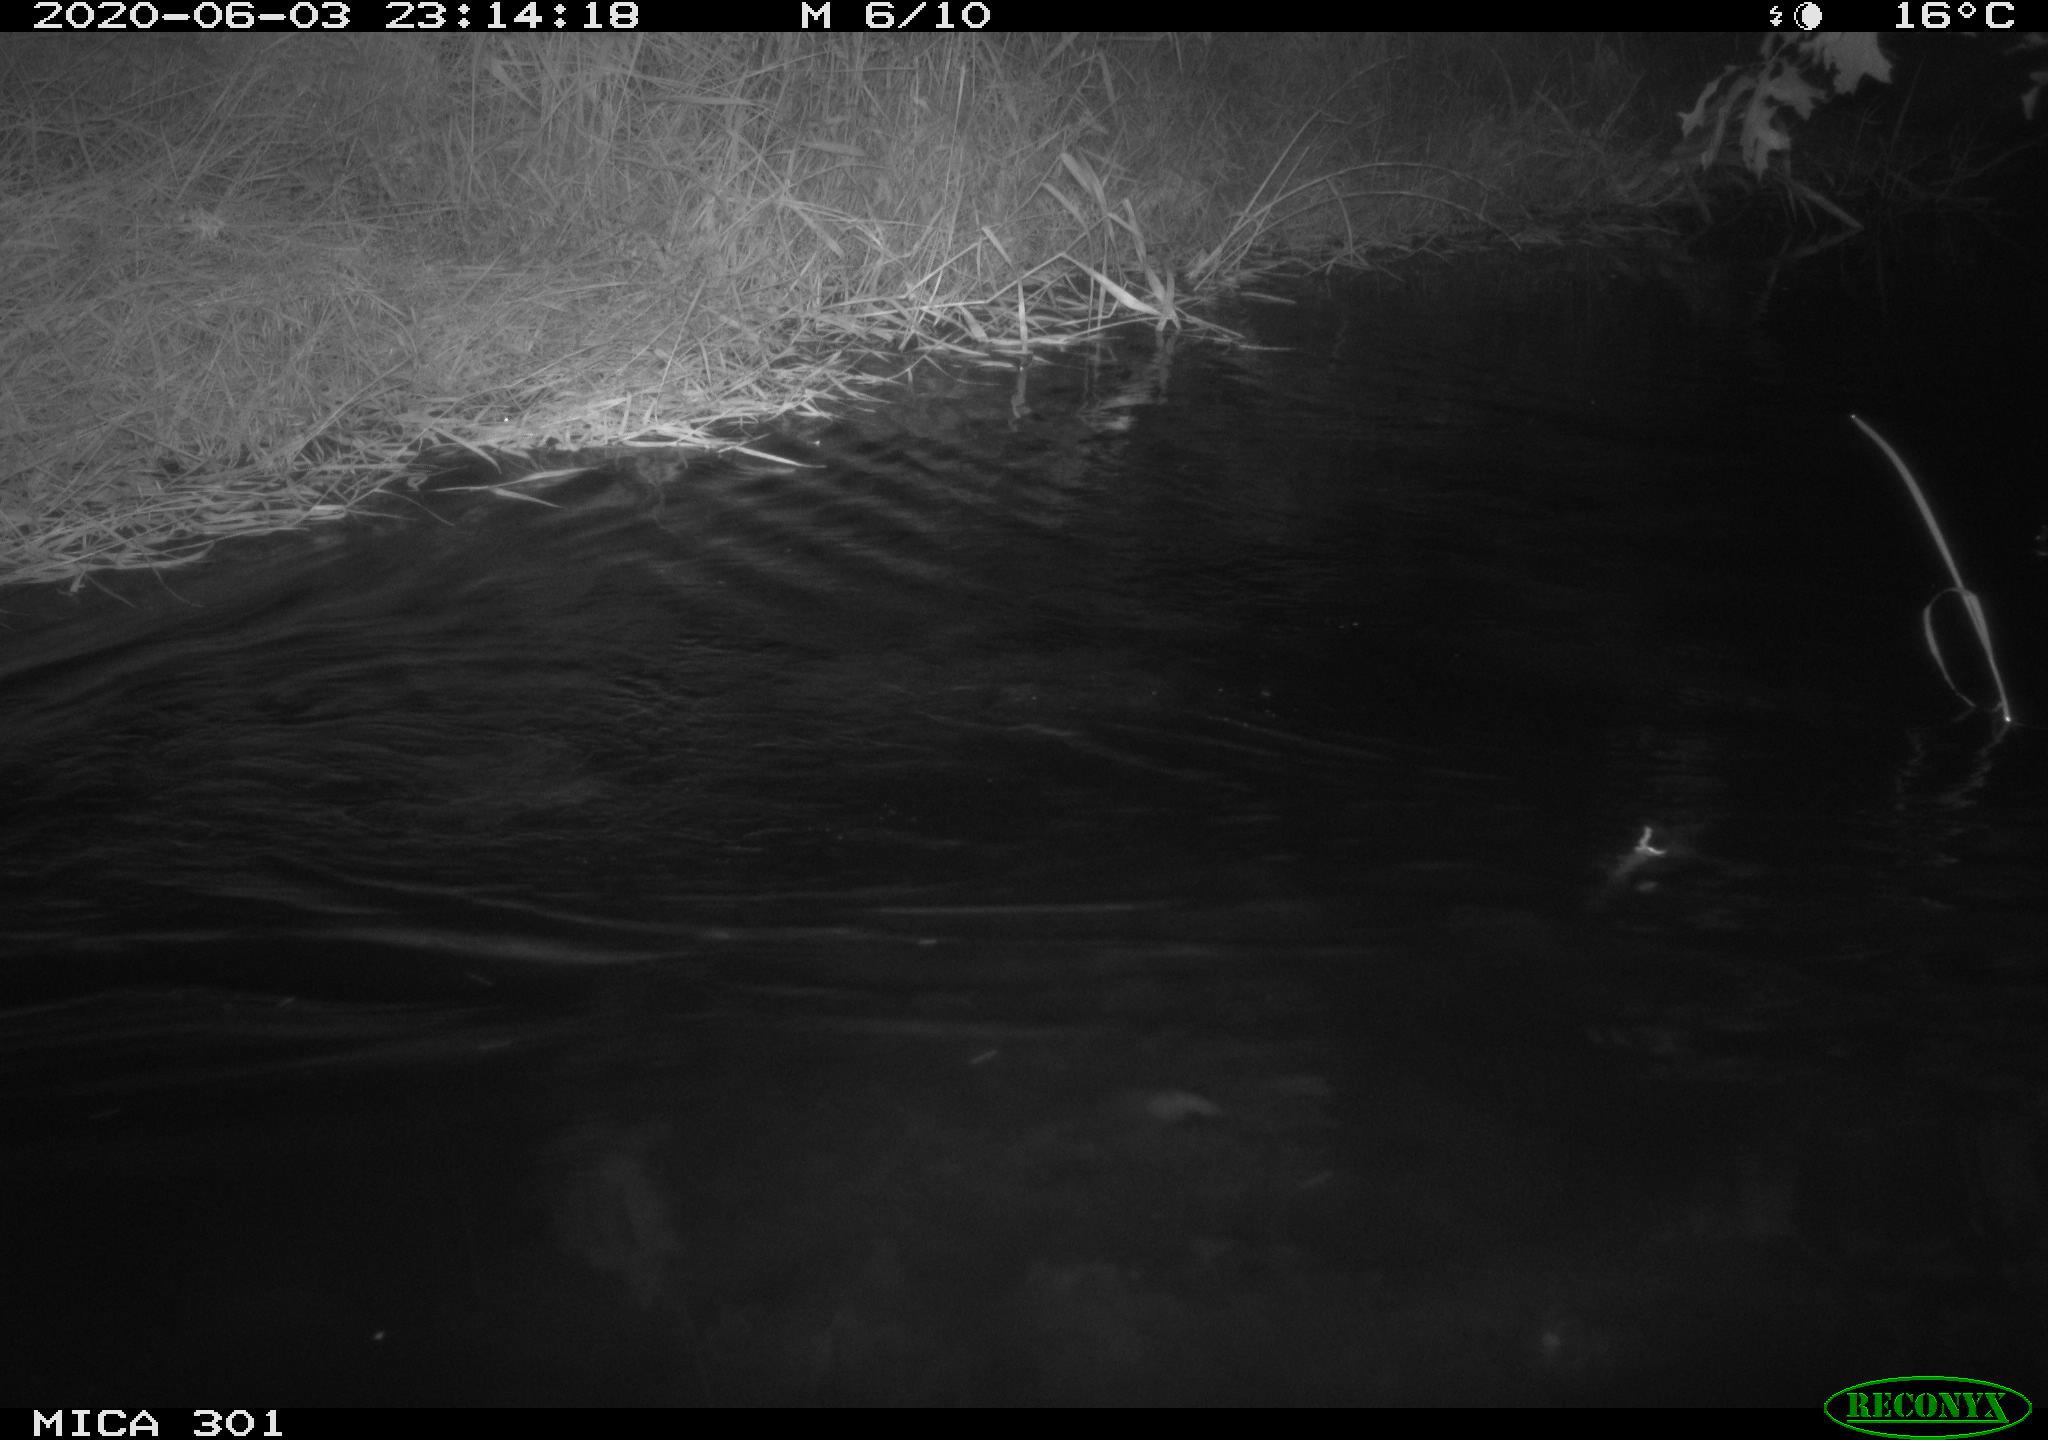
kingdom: Animalia
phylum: Chordata
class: Mammalia
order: Rodentia
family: Castoridae
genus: Castor
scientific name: Castor fiber
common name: Eurasian beaver
